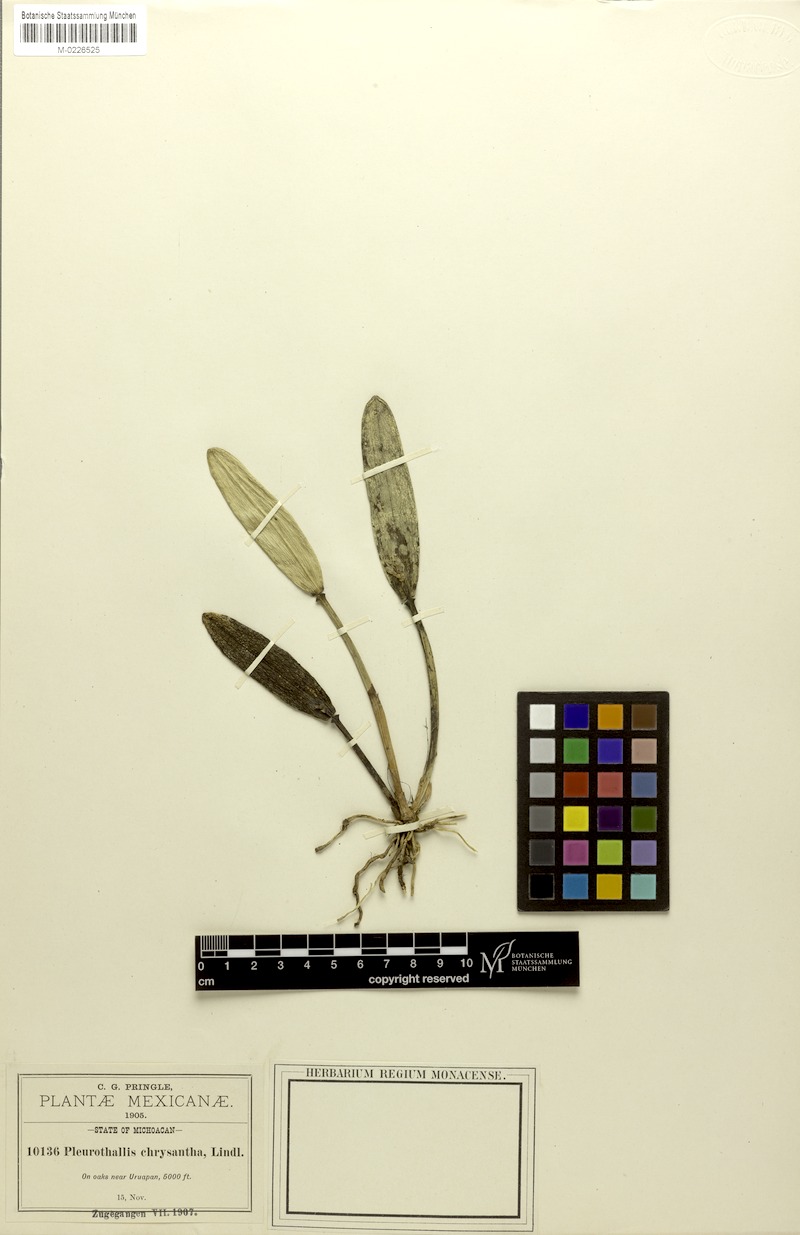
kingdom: Plantae
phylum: Tracheophyta
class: Liliopsida
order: Asparagales
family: Orchidaceae
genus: Acianthera
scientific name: Acianthera hartwegiifolia
